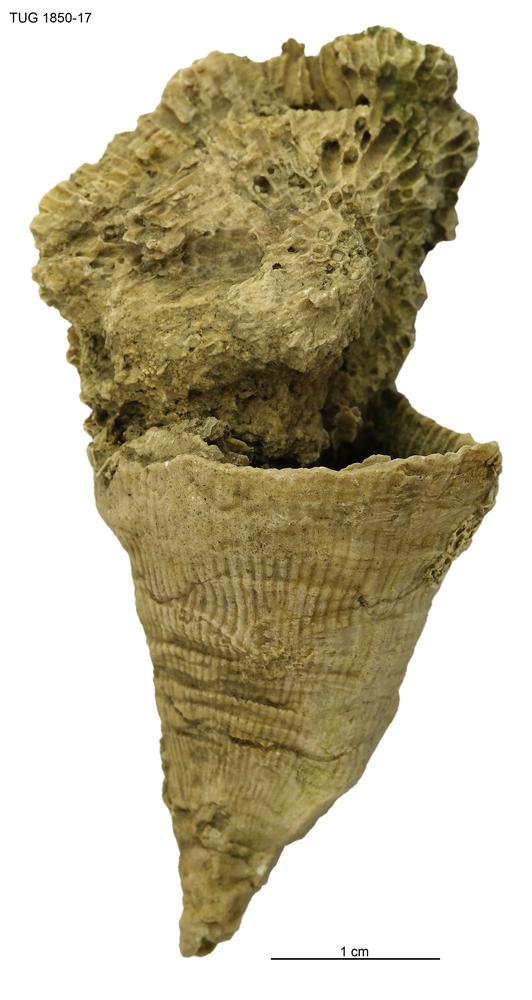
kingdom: Animalia
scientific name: Animalia
